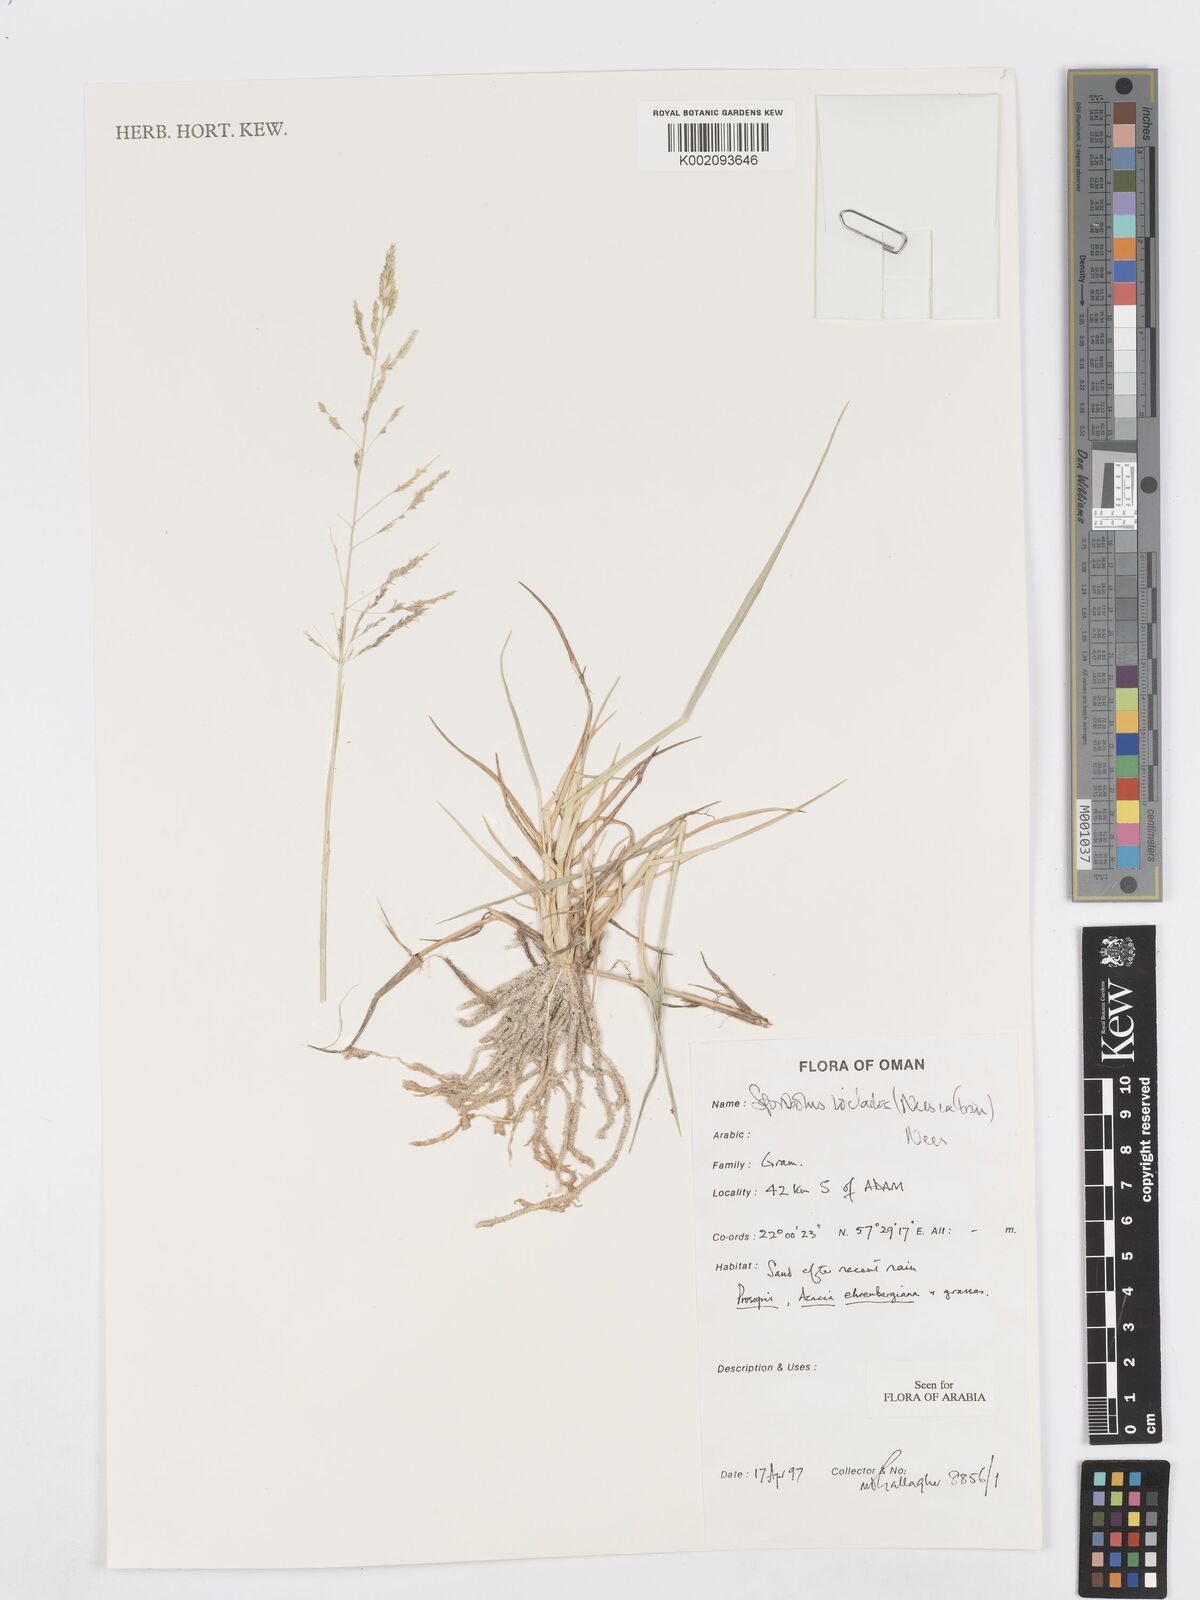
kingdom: Plantae
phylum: Tracheophyta
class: Liliopsida
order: Poales
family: Poaceae
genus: Sporobolus
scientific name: Sporobolus ioclados
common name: Pan dropseed
